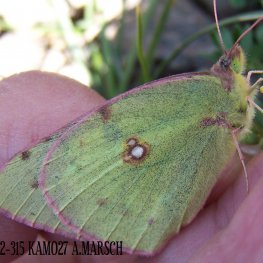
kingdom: Animalia
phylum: Arthropoda
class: Insecta
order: Lepidoptera
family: Pieridae
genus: Colias
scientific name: Colias philodice
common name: Clouded Sulphur
